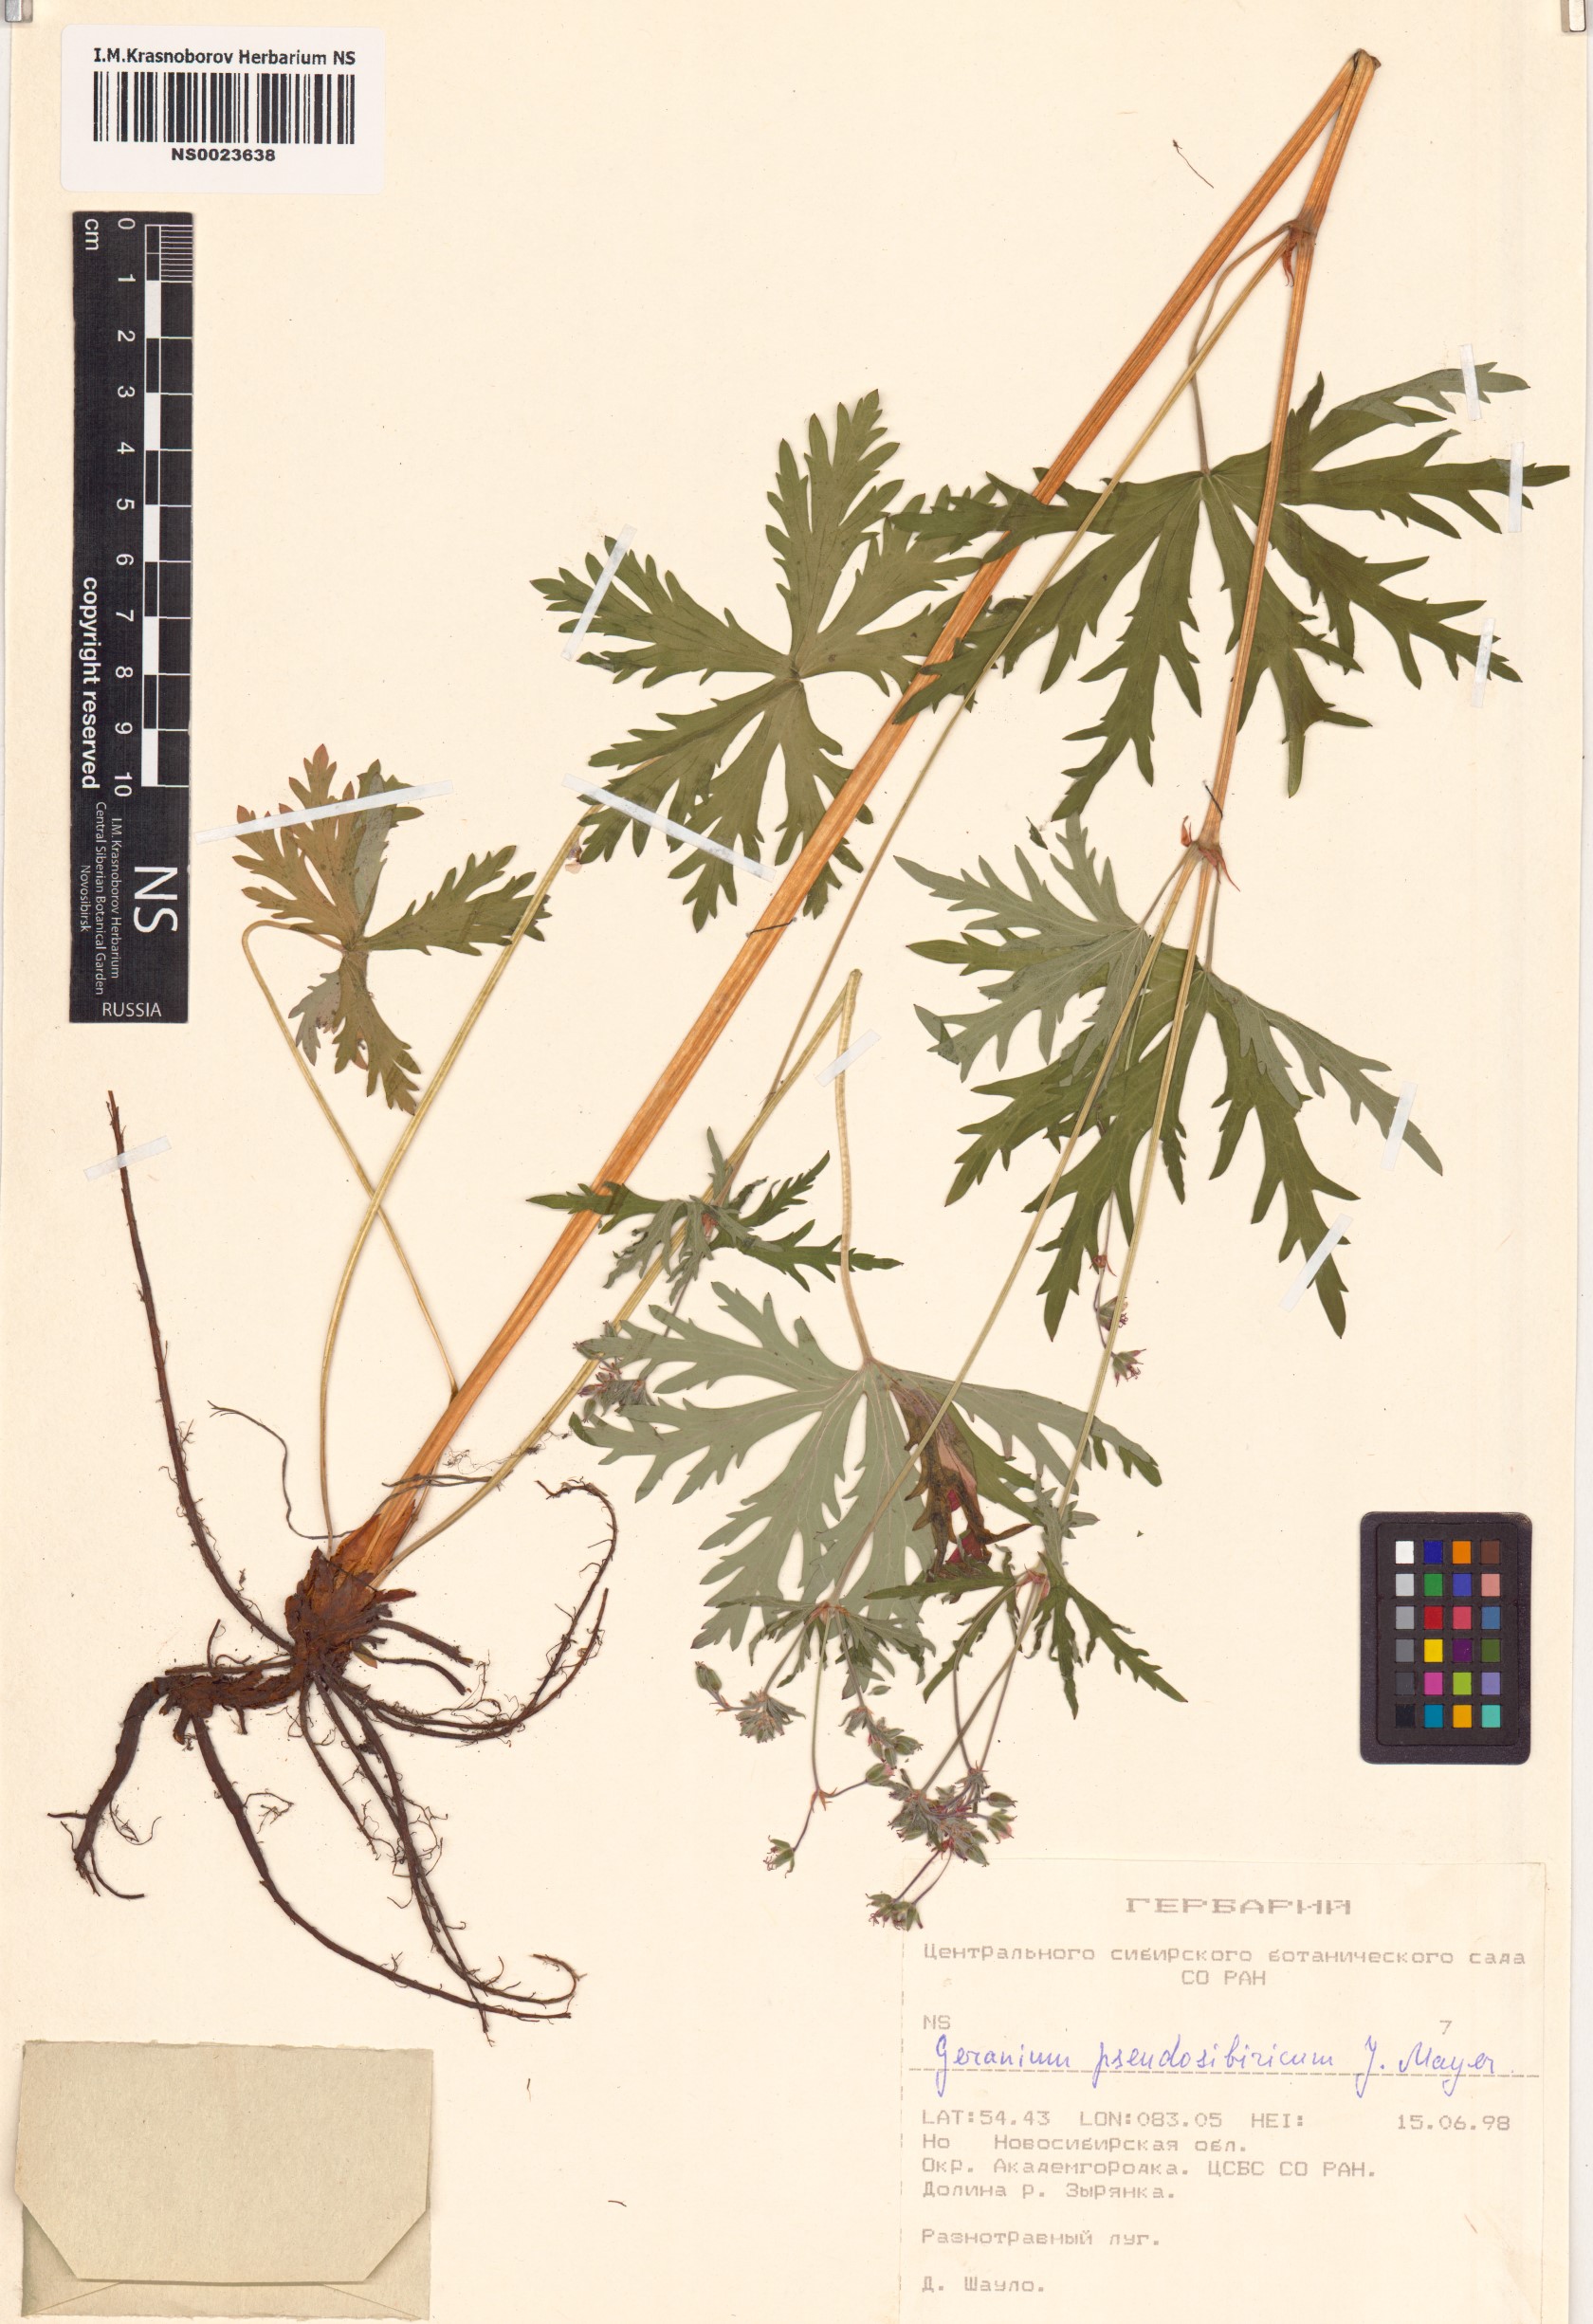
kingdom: Plantae
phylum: Tracheophyta
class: Magnoliopsida
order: Geraniales
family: Geraniaceae
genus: Geranium
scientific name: Geranium pseudosibiricum
